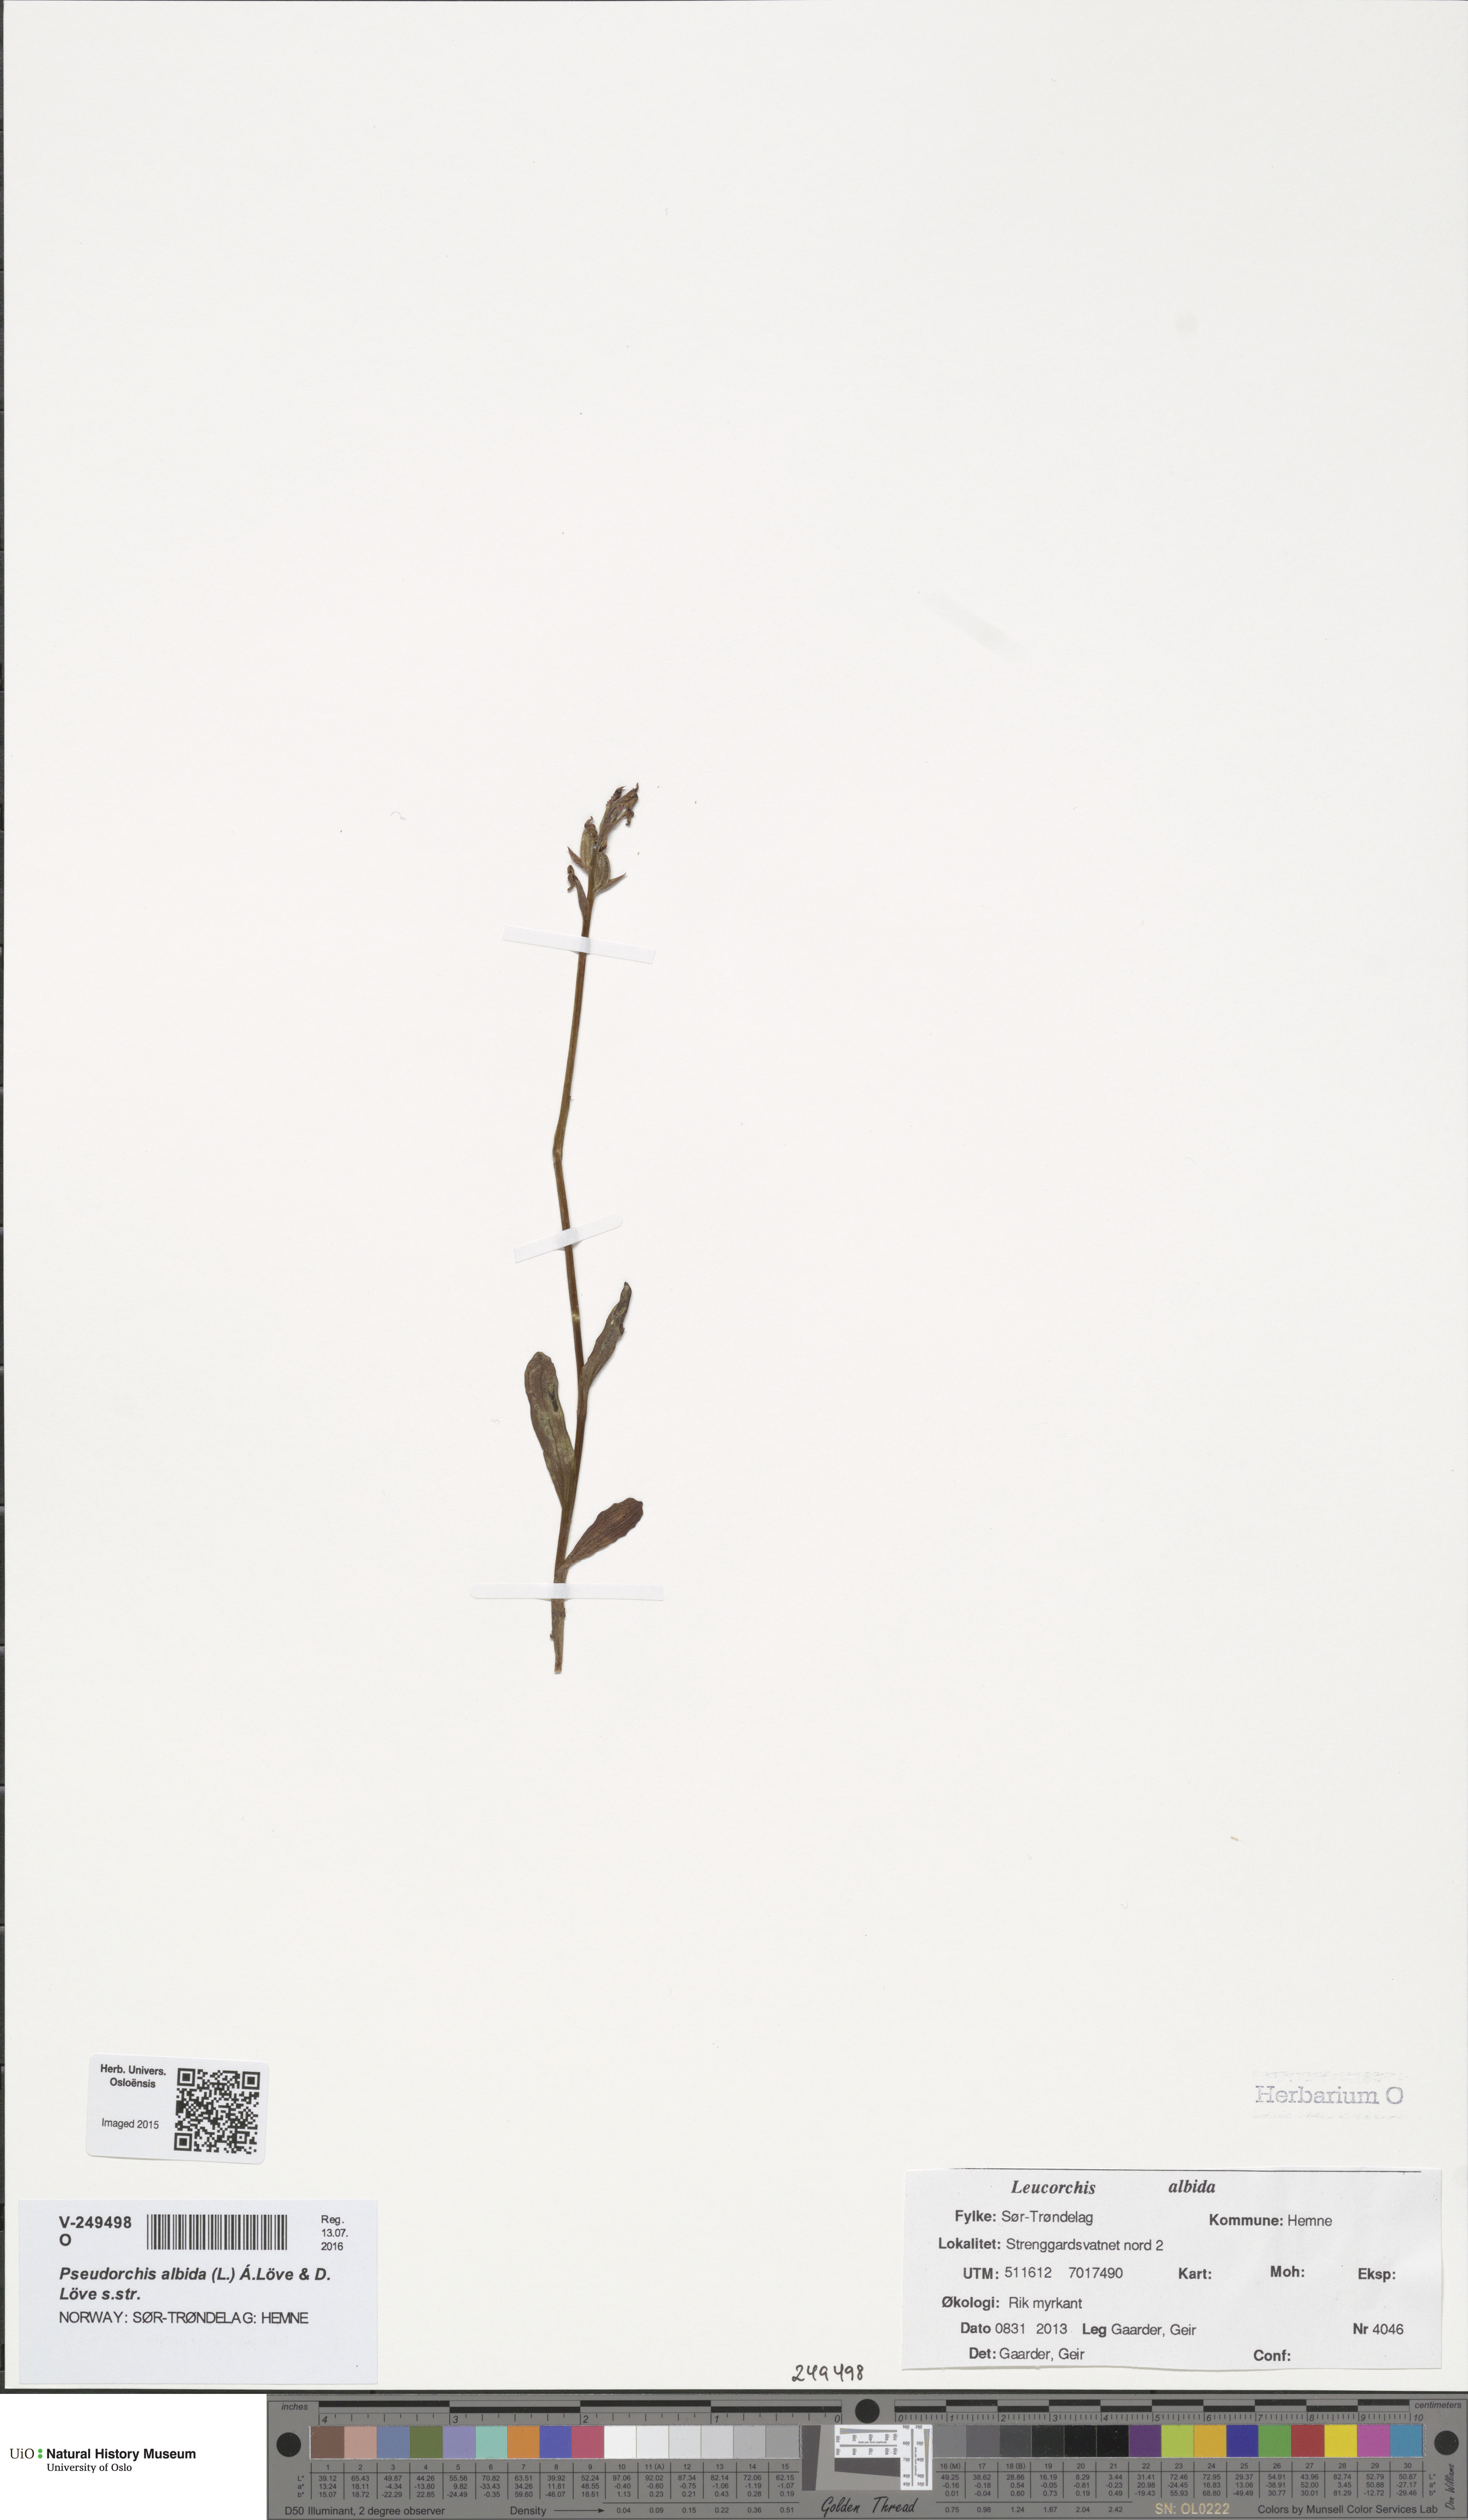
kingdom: Plantae
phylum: Tracheophyta
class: Liliopsida
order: Asparagales
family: Orchidaceae
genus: Pseudorchis
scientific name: Pseudorchis albida
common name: Small-white orchid
